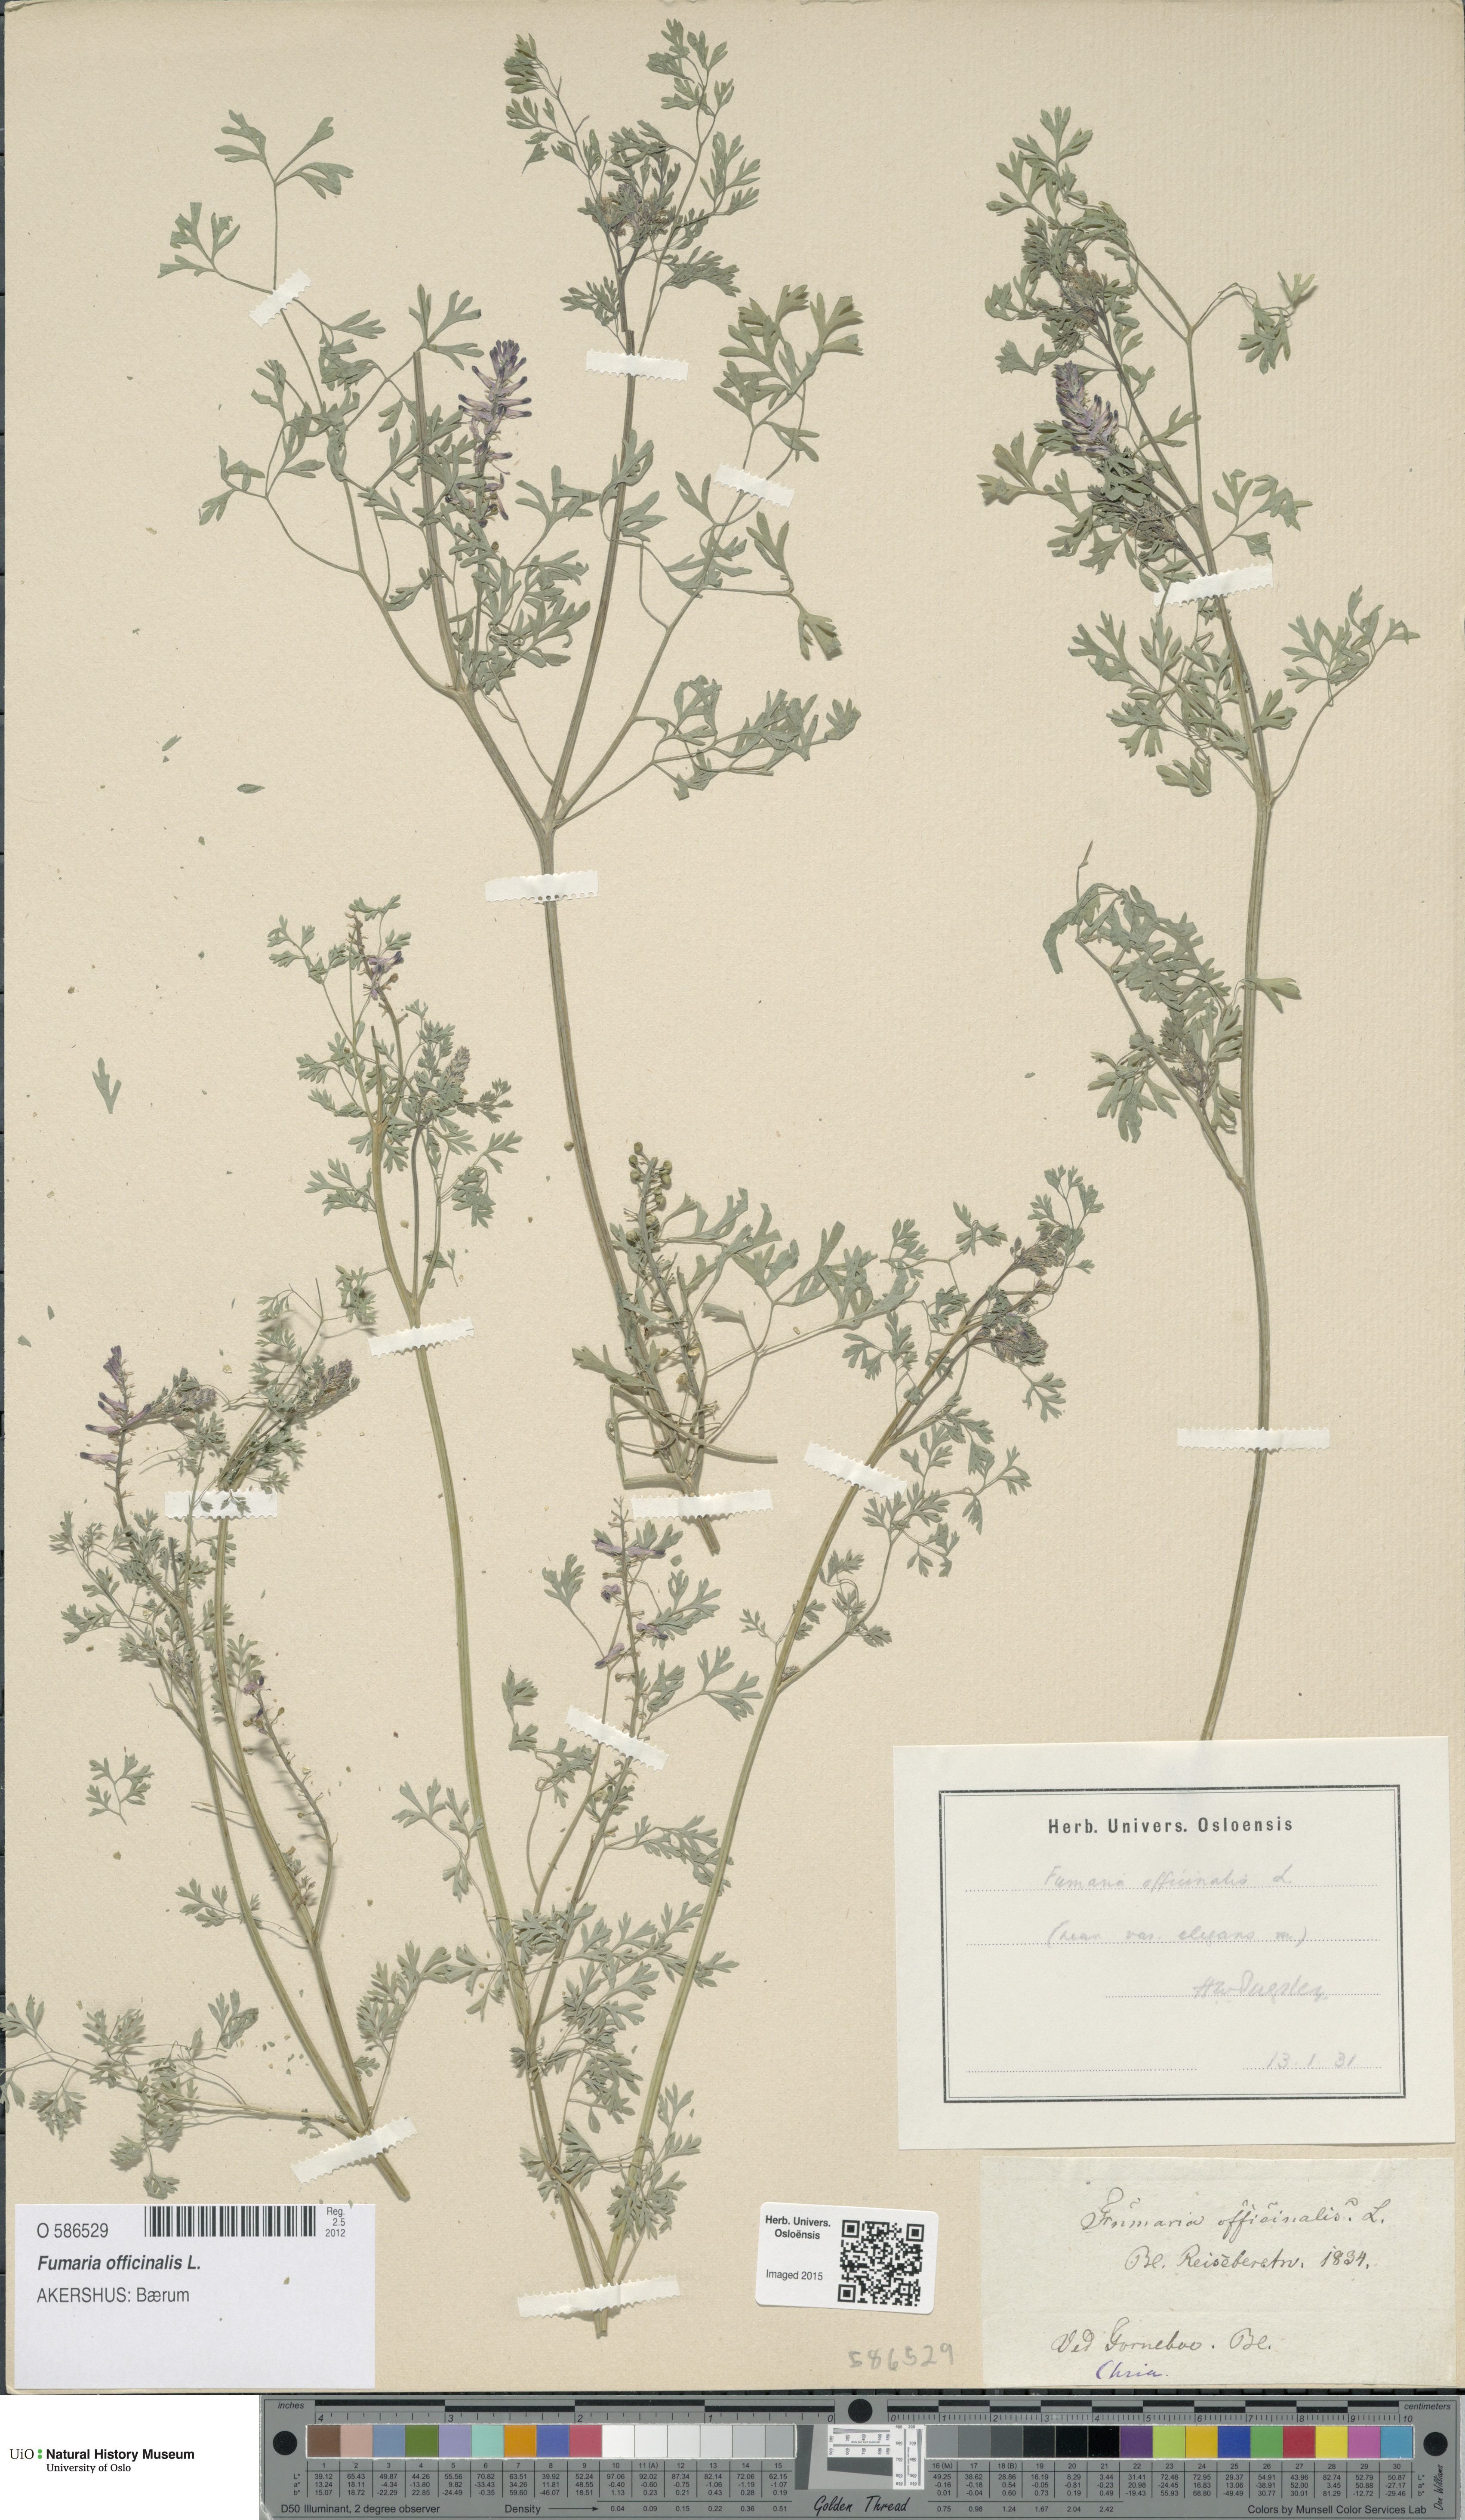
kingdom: Plantae
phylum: Tracheophyta
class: Magnoliopsida
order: Ranunculales
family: Papaveraceae
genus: Fumaria
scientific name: Fumaria officinalis
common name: Common fumitory
